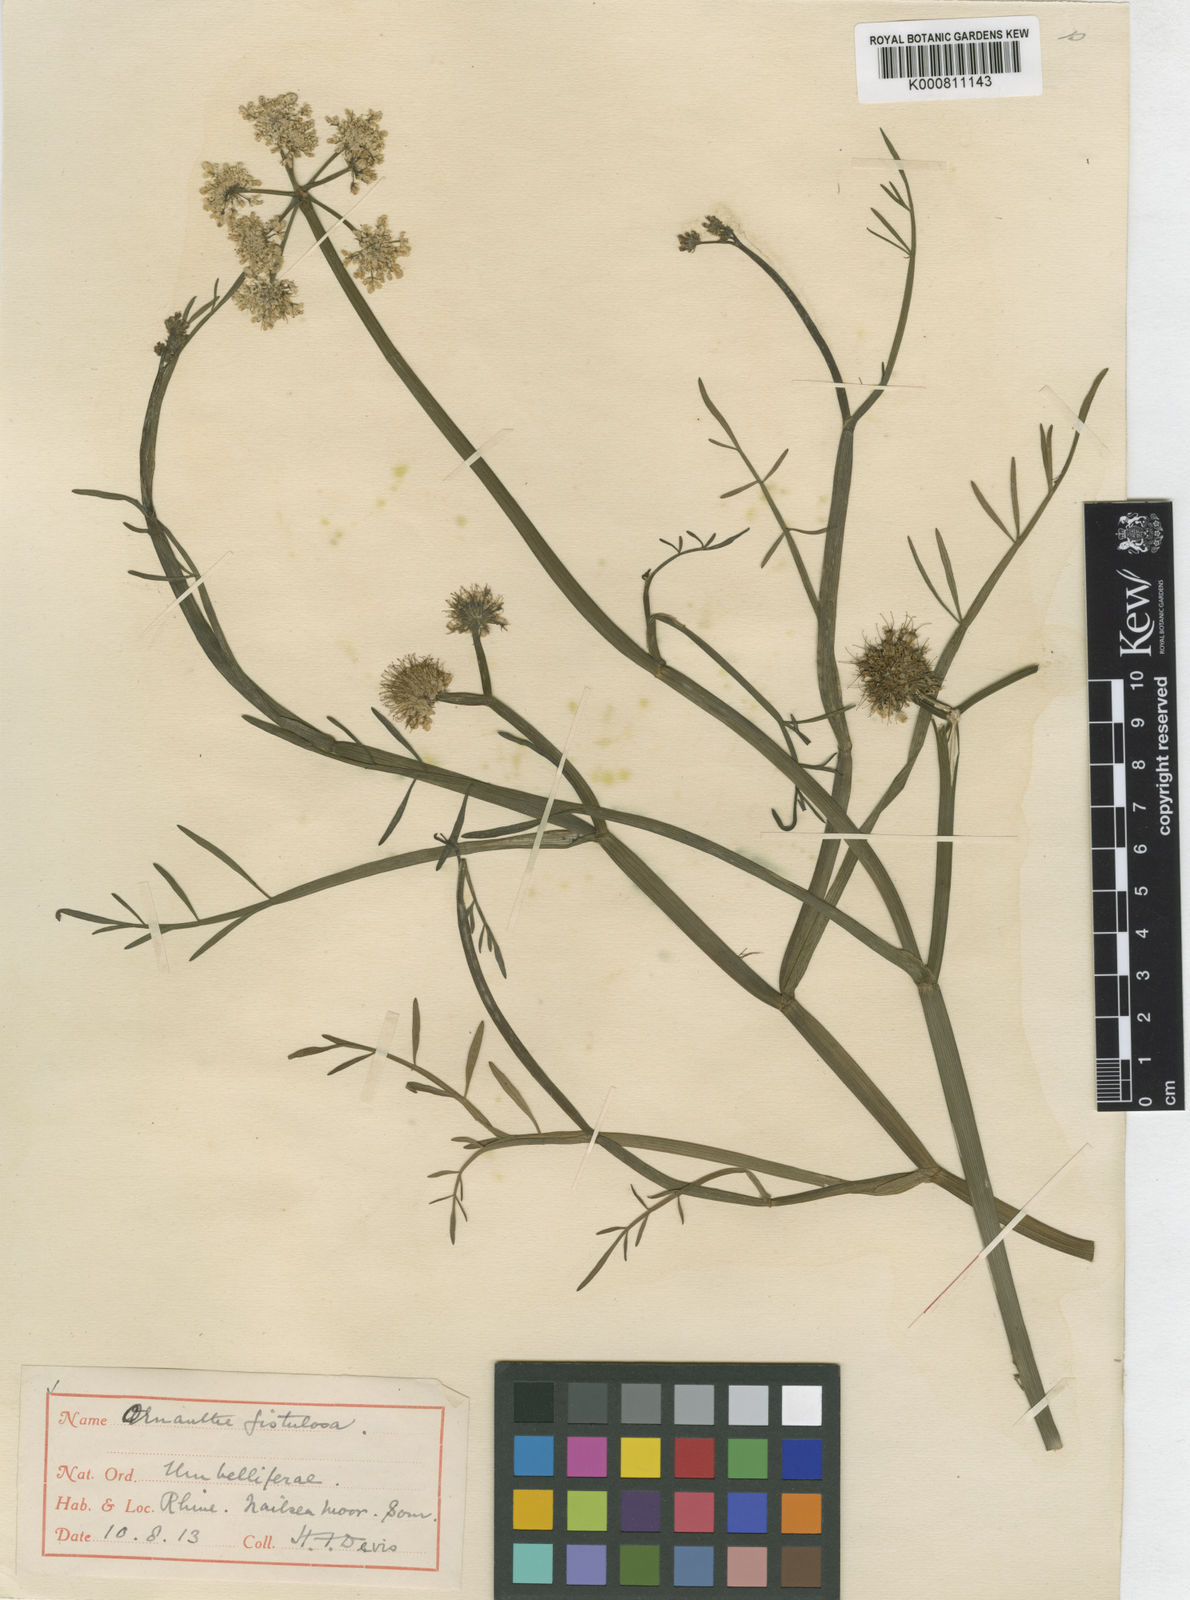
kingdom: Plantae
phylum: Tracheophyta
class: Magnoliopsida
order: Apiales
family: Apiaceae
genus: Oenanthe
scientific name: Oenanthe fistulosa
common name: Tubular water-dropwort
